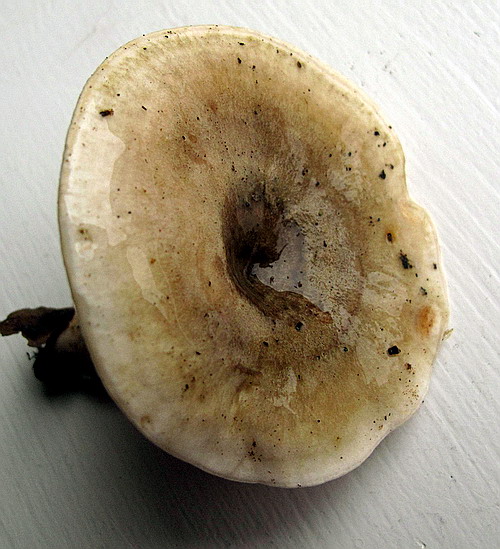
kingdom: Fungi
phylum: Basidiomycota
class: Agaricomycetes
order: Russulales
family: Russulaceae
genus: Lactarius
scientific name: Lactarius fluens
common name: lysrandet mælkehat
